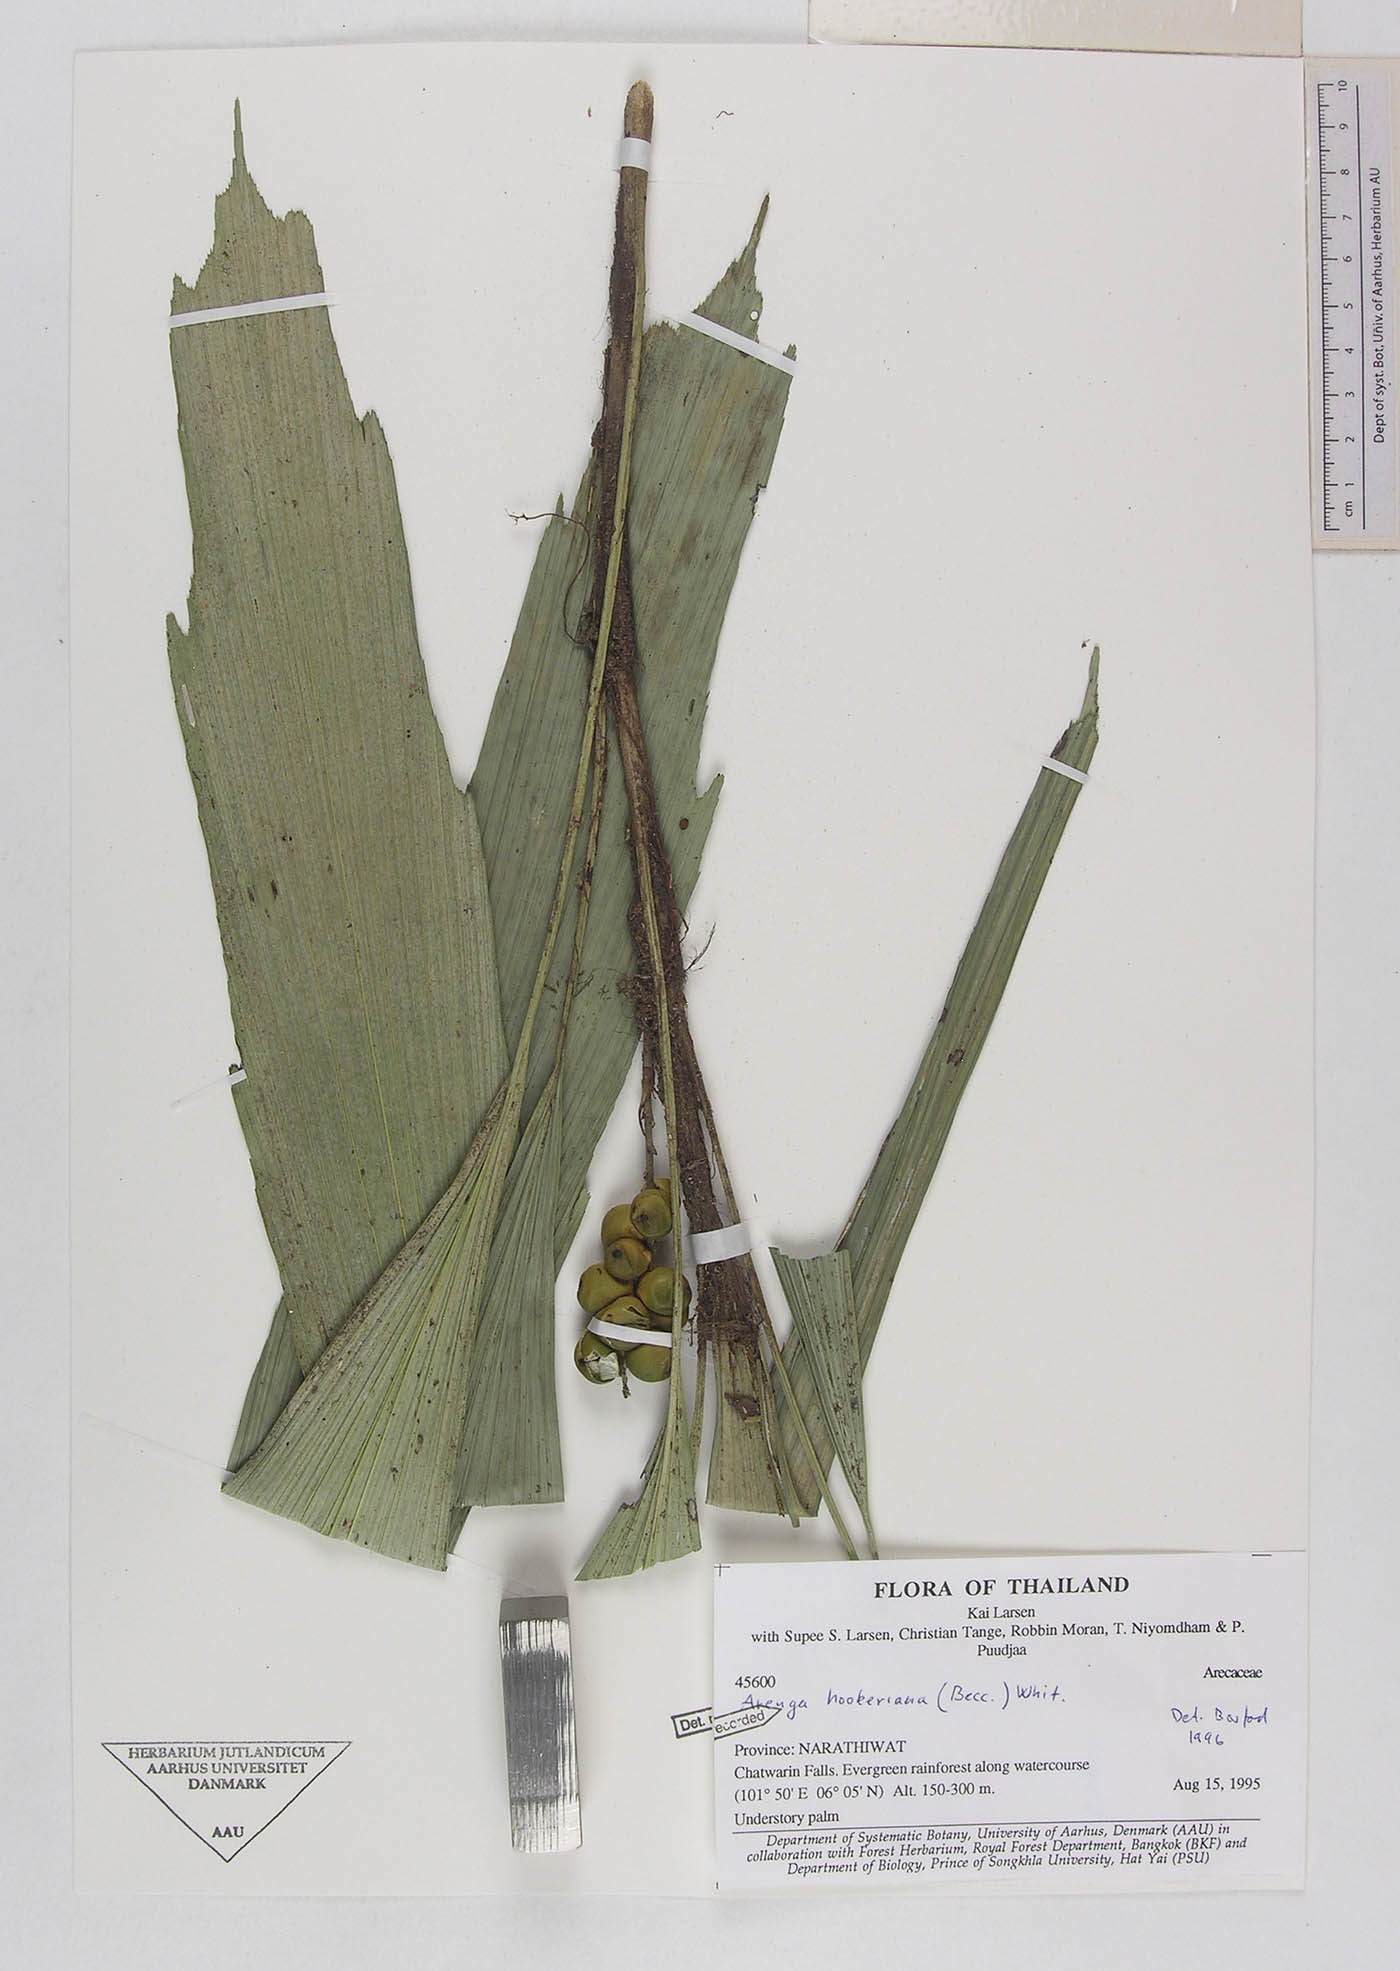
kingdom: Plantae
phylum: Tracheophyta
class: Liliopsida
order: Arecales
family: Arecaceae
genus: Arenga
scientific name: Arenga hookeriana
